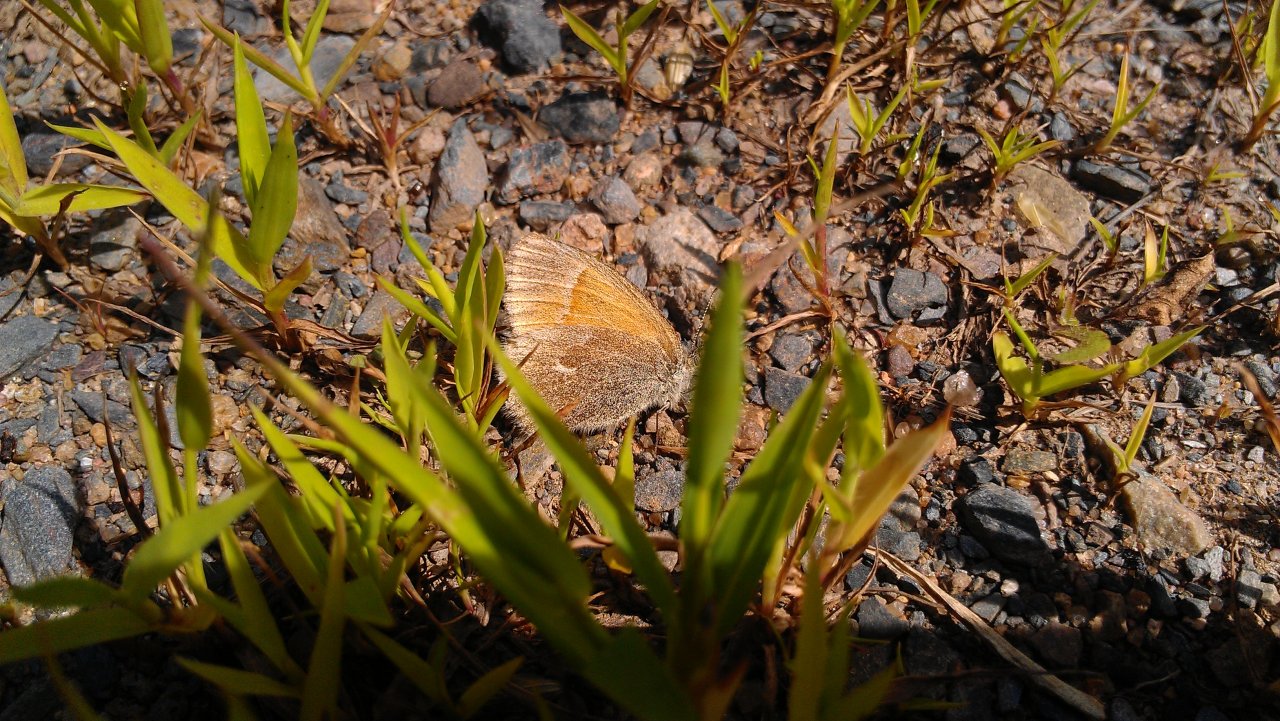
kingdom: Animalia
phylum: Arthropoda
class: Insecta
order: Lepidoptera
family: Nymphalidae
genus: Coenonympha
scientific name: Coenonympha tullia
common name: Large Heath
